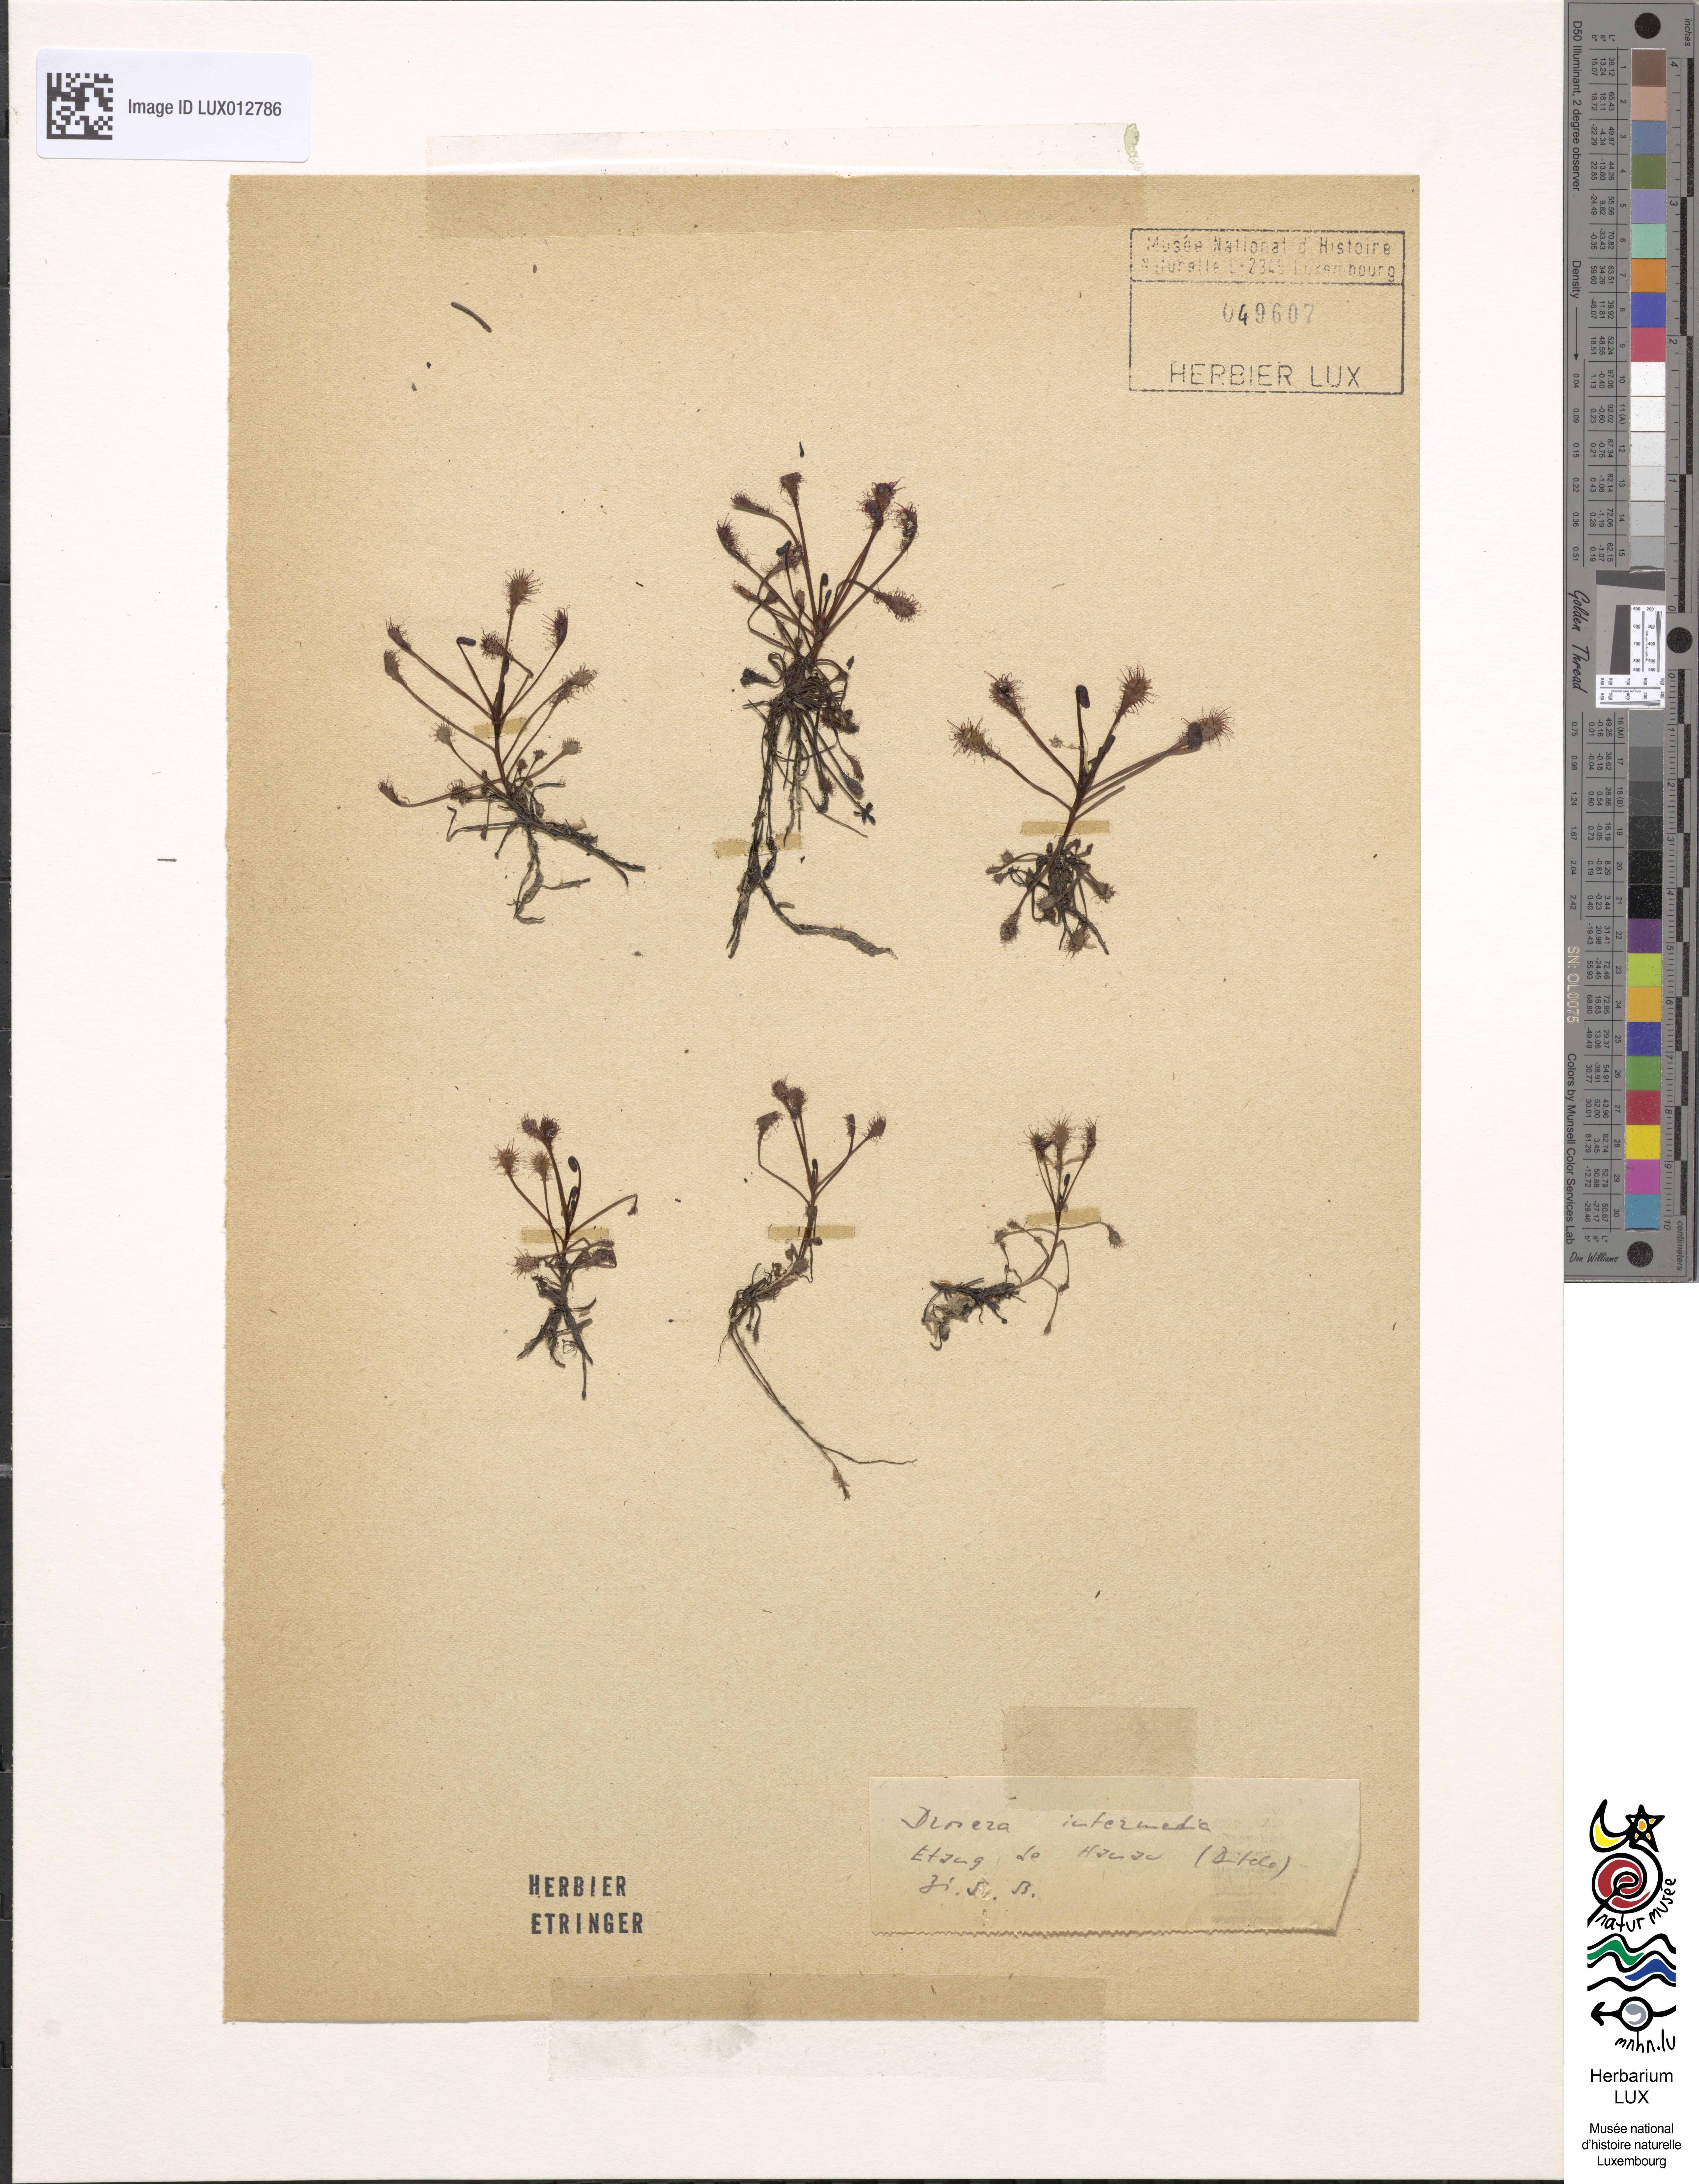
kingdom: Plantae
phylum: Tracheophyta
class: Magnoliopsida
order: Caryophyllales
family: Droseraceae
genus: Drosera
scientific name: Drosera intermedia
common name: Oblong-leaved sundew
